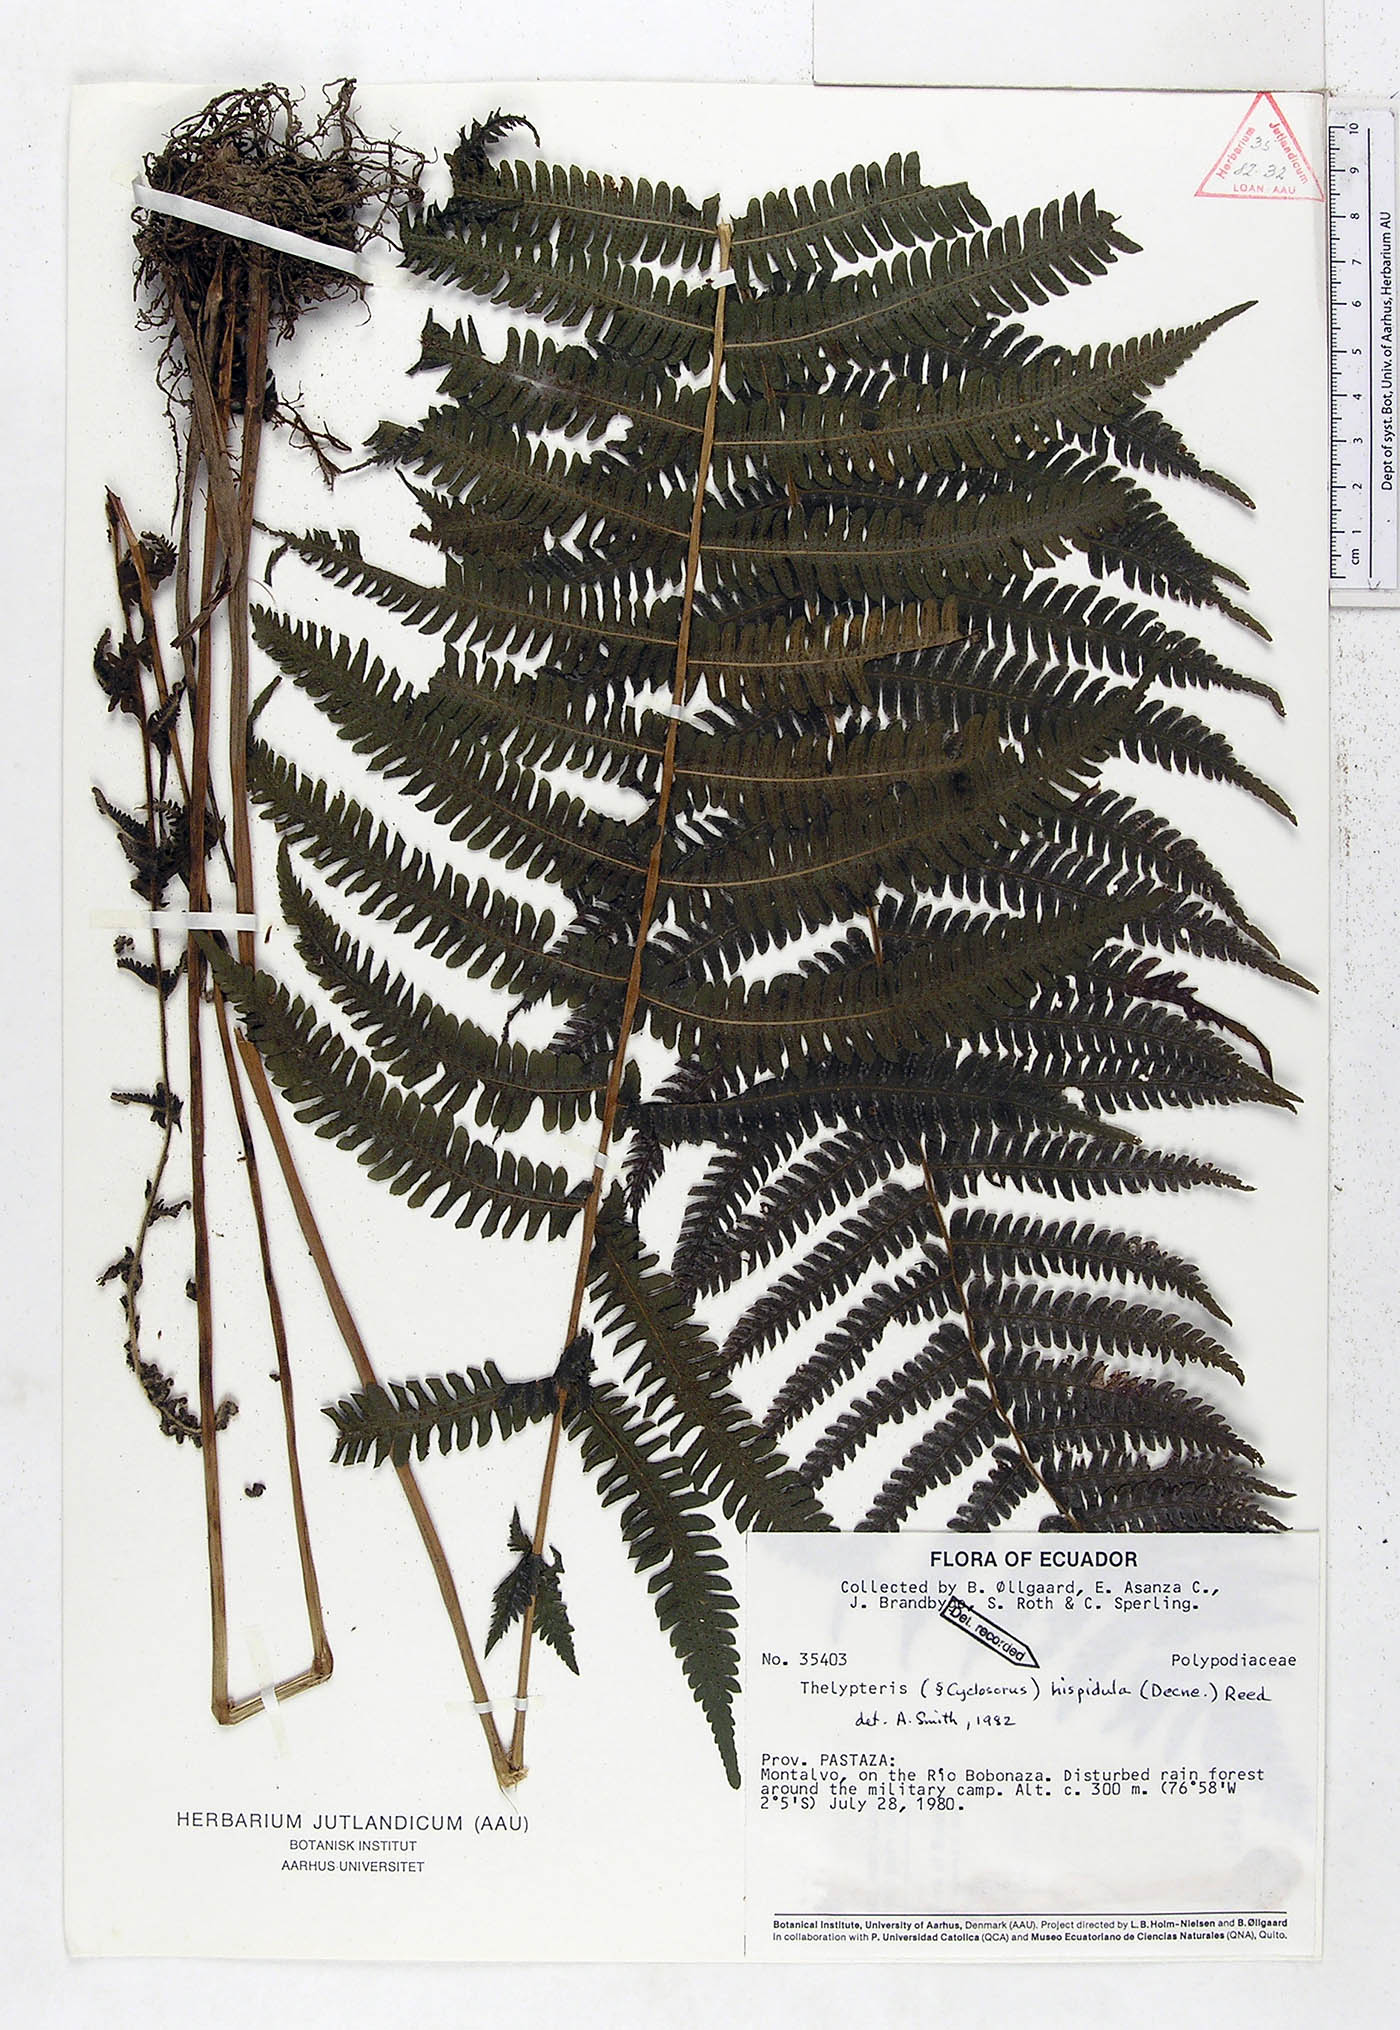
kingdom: Plantae
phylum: Tracheophyta
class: Polypodiopsida
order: Polypodiales
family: Thelypteridaceae
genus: Christella
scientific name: Christella hispidula
